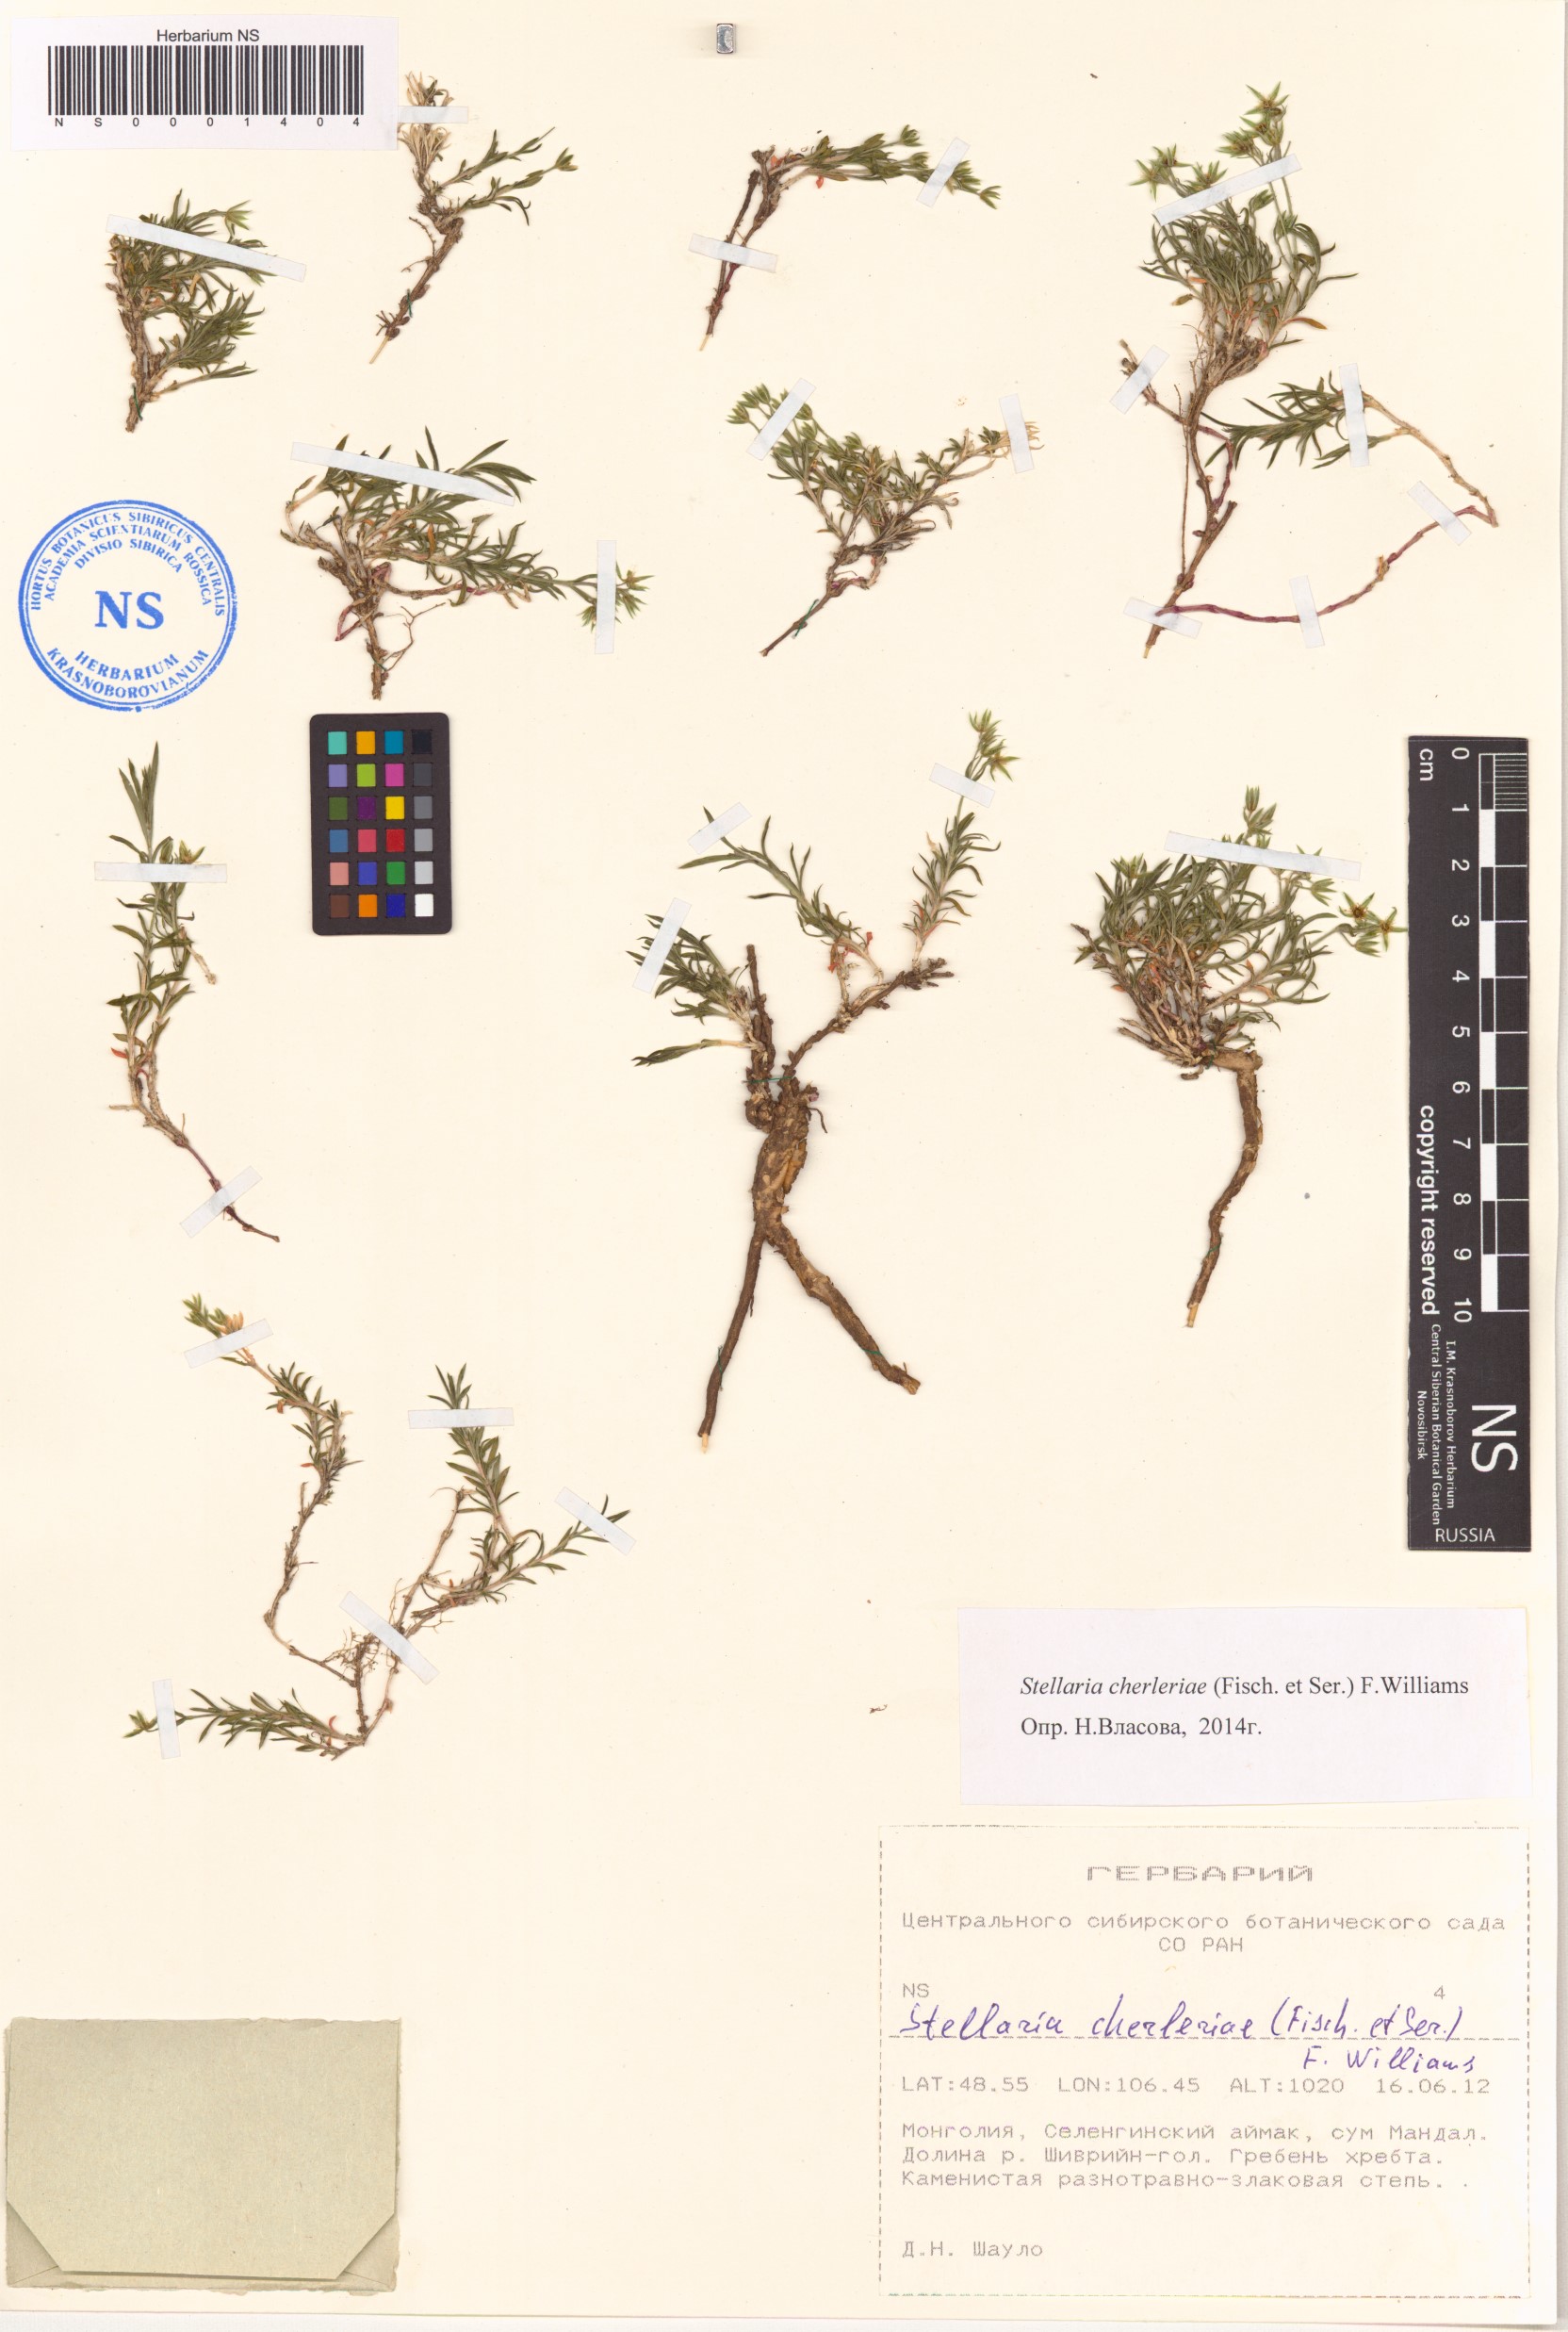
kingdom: Plantae
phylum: Tracheophyta
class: Magnoliopsida
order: Caryophyllales
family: Caryophyllaceae
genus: Adenonema
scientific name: Adenonema cherleriae
